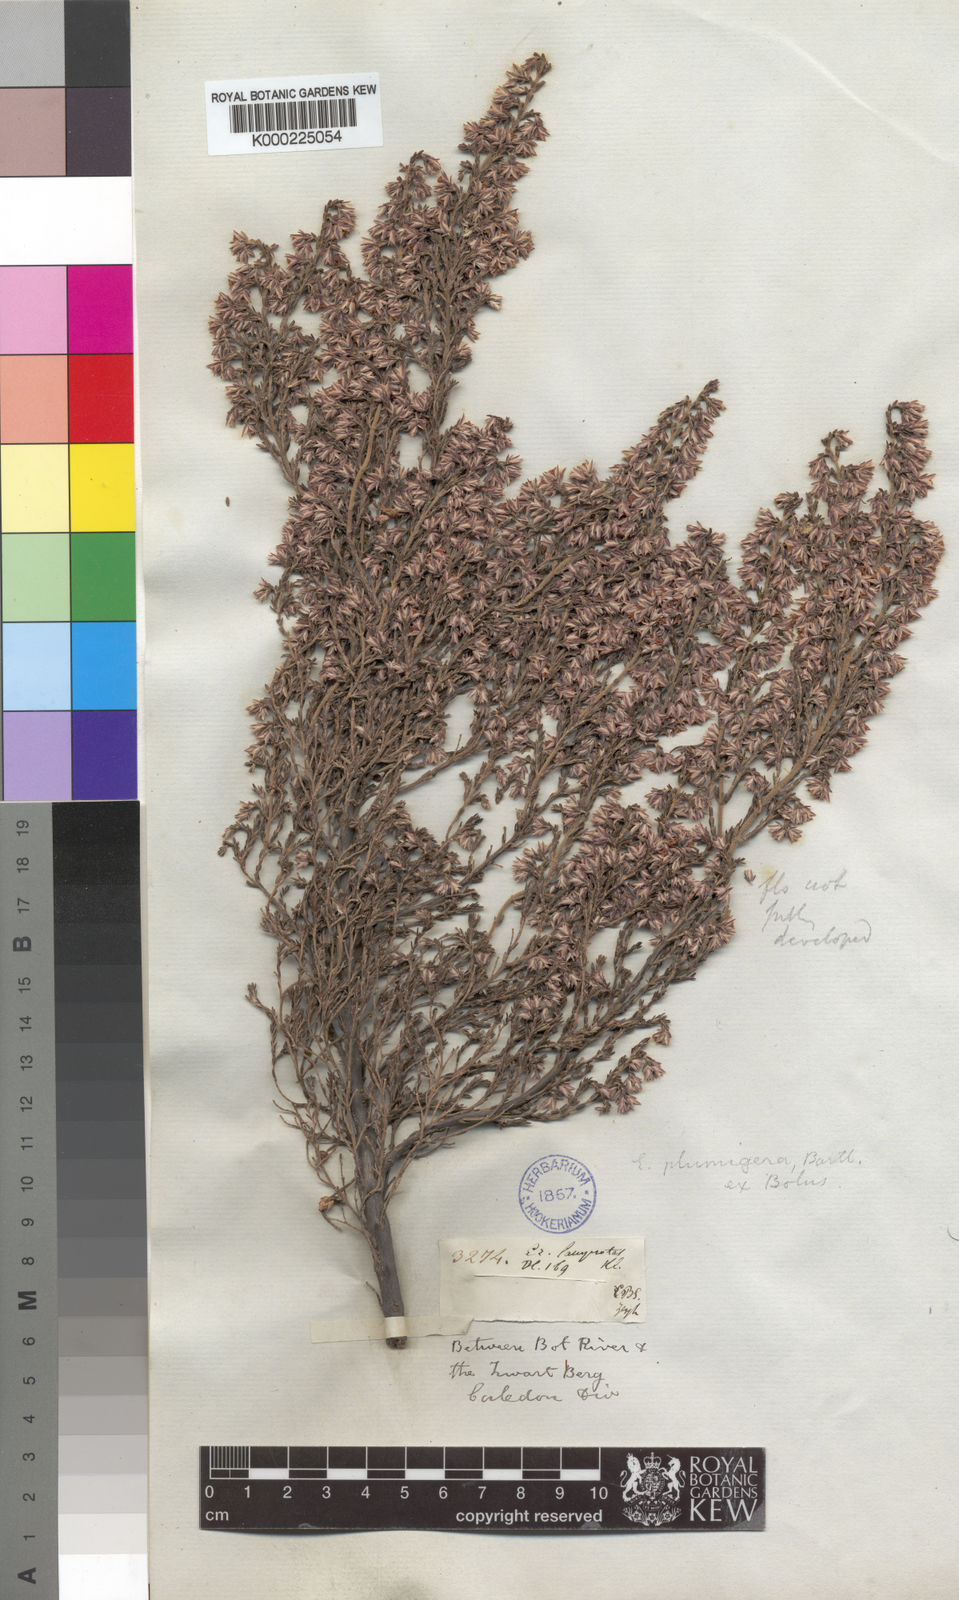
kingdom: Plantae
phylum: Tracheophyta
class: Magnoliopsida
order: Ericales
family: Ericaceae
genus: Erica
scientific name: Erica plumigera
